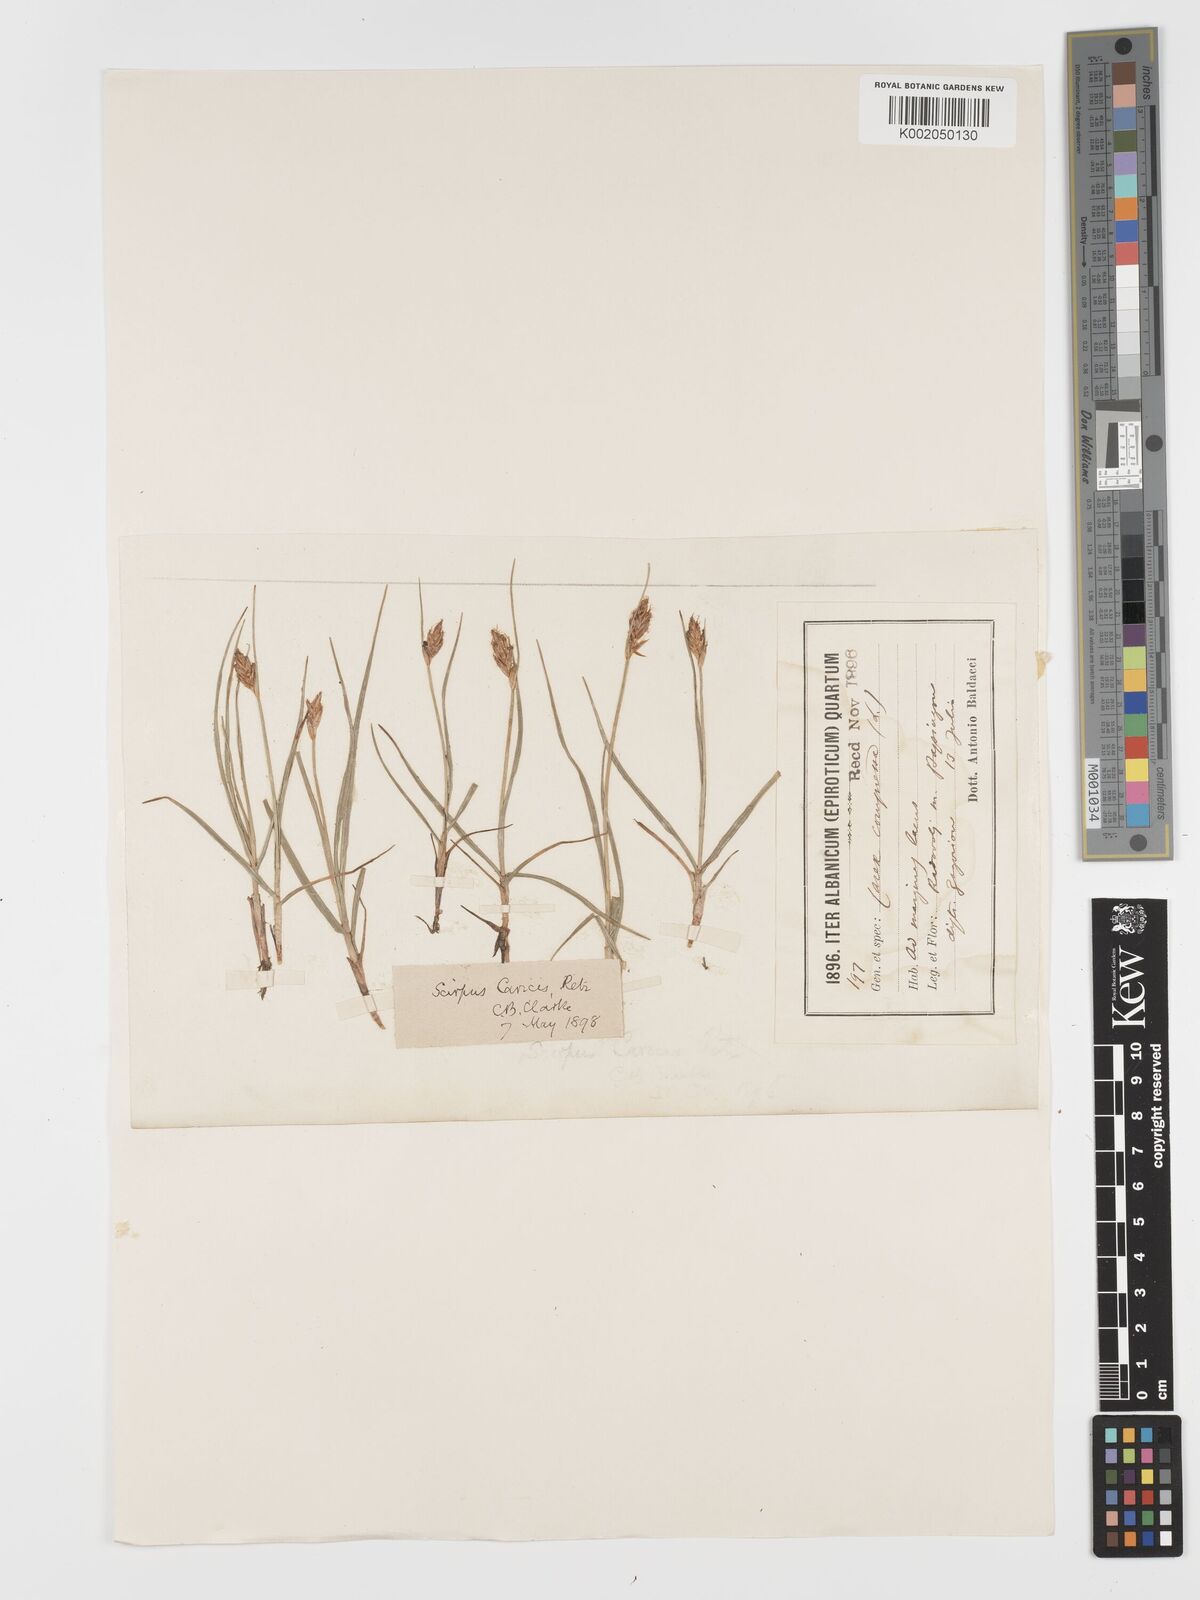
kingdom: Plantae
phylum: Tracheophyta
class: Liliopsida
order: Poales
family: Cyperaceae
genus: Blysmus
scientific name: Blysmus compressus
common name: Flat-sedge
